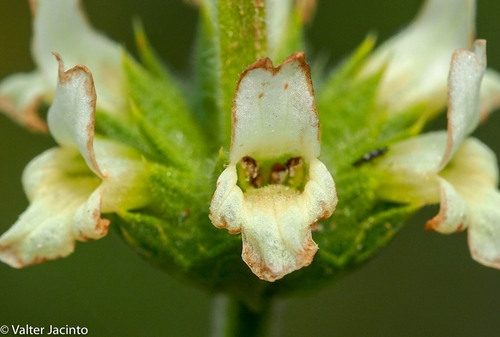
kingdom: Plantae
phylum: Tracheophyta
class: Magnoliopsida
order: Lamiales
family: Lamiaceae
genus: Sideritis
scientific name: Sideritis arborescens
